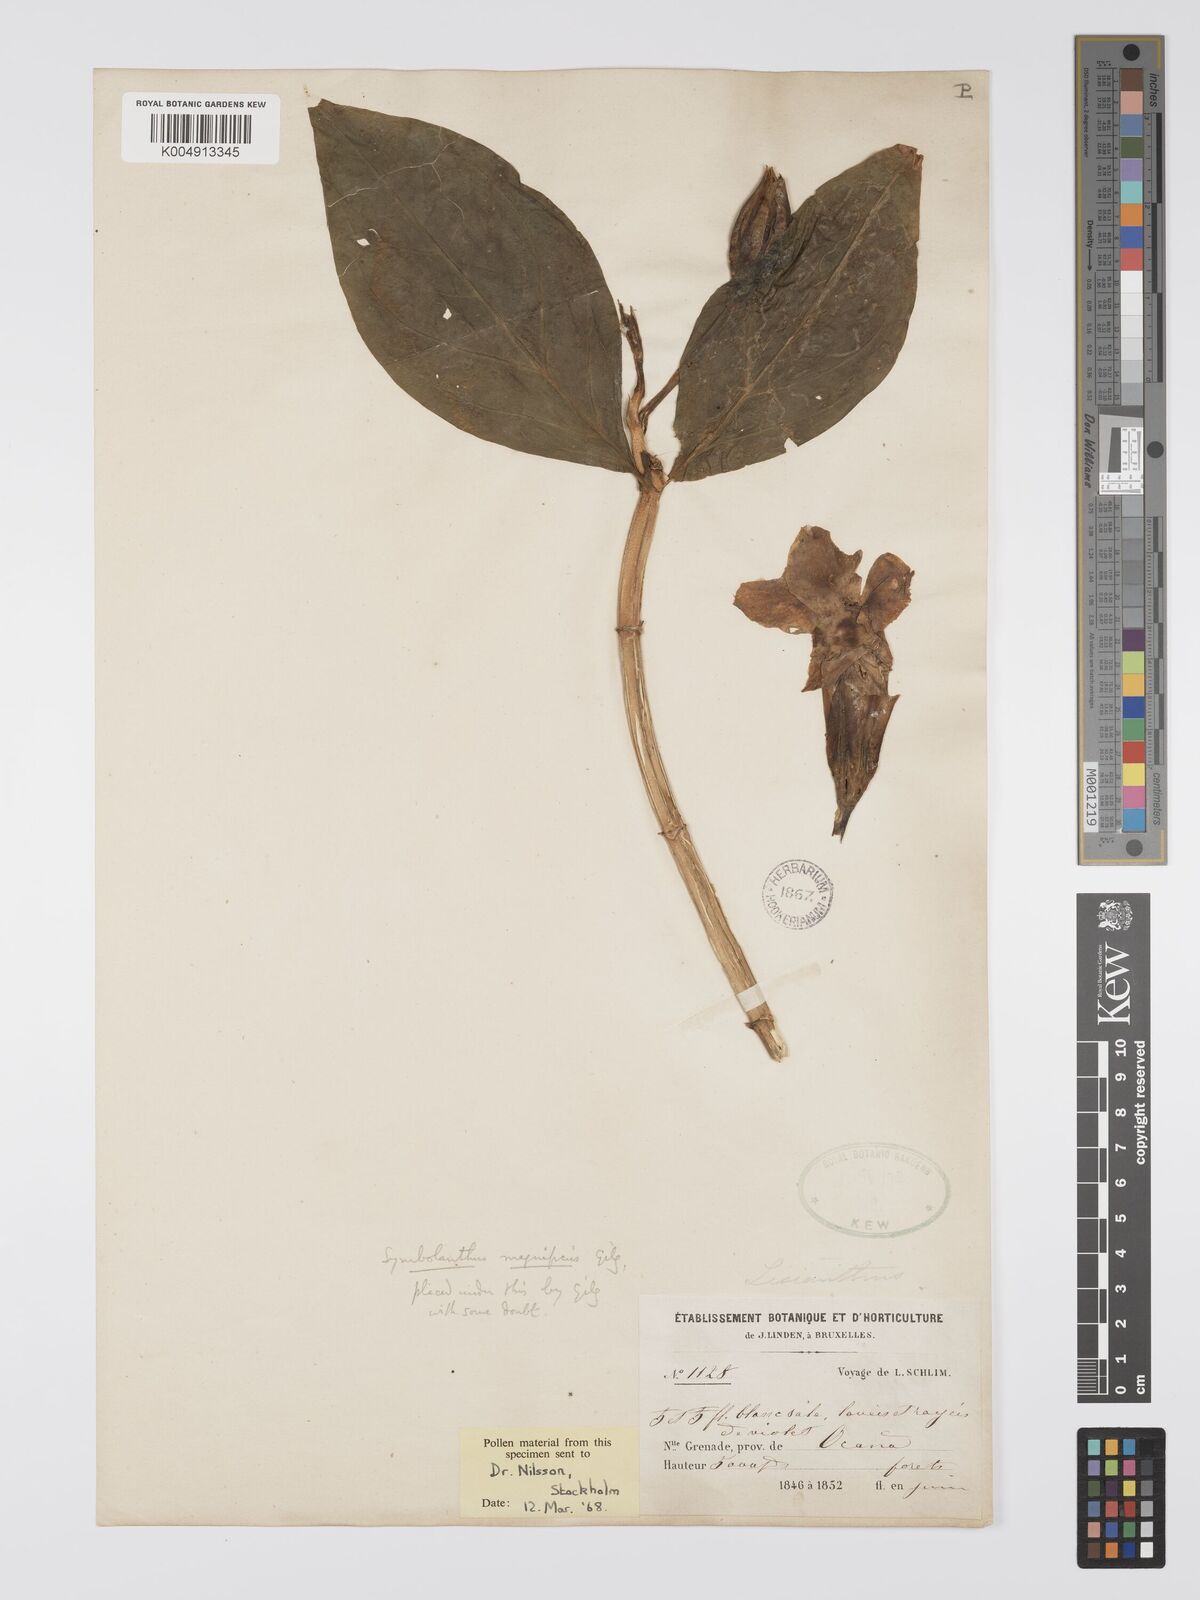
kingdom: Plantae
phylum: Tracheophyta
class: Magnoliopsida
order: Gentianales
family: Gentianaceae
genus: Symbolanthus
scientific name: Symbolanthus superbus
